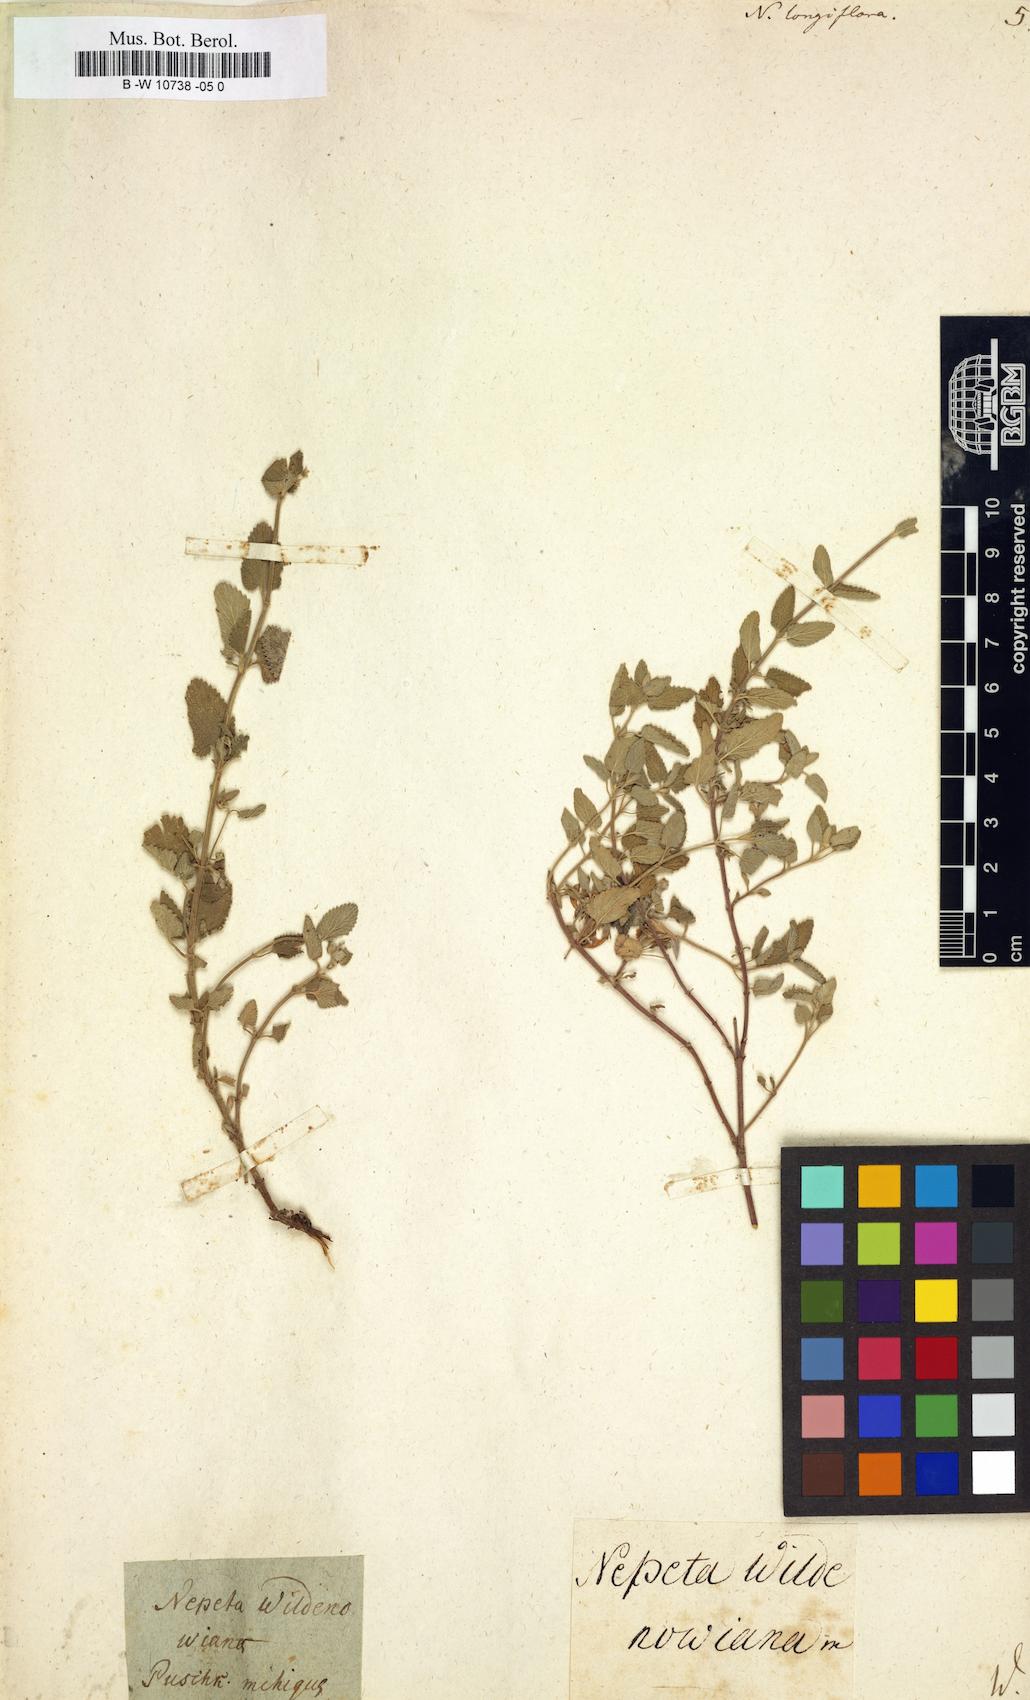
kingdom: Plantae
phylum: Tracheophyta
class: Magnoliopsida
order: Lamiales
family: Lamiaceae
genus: Nepeta
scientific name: Nepeta longiflora
